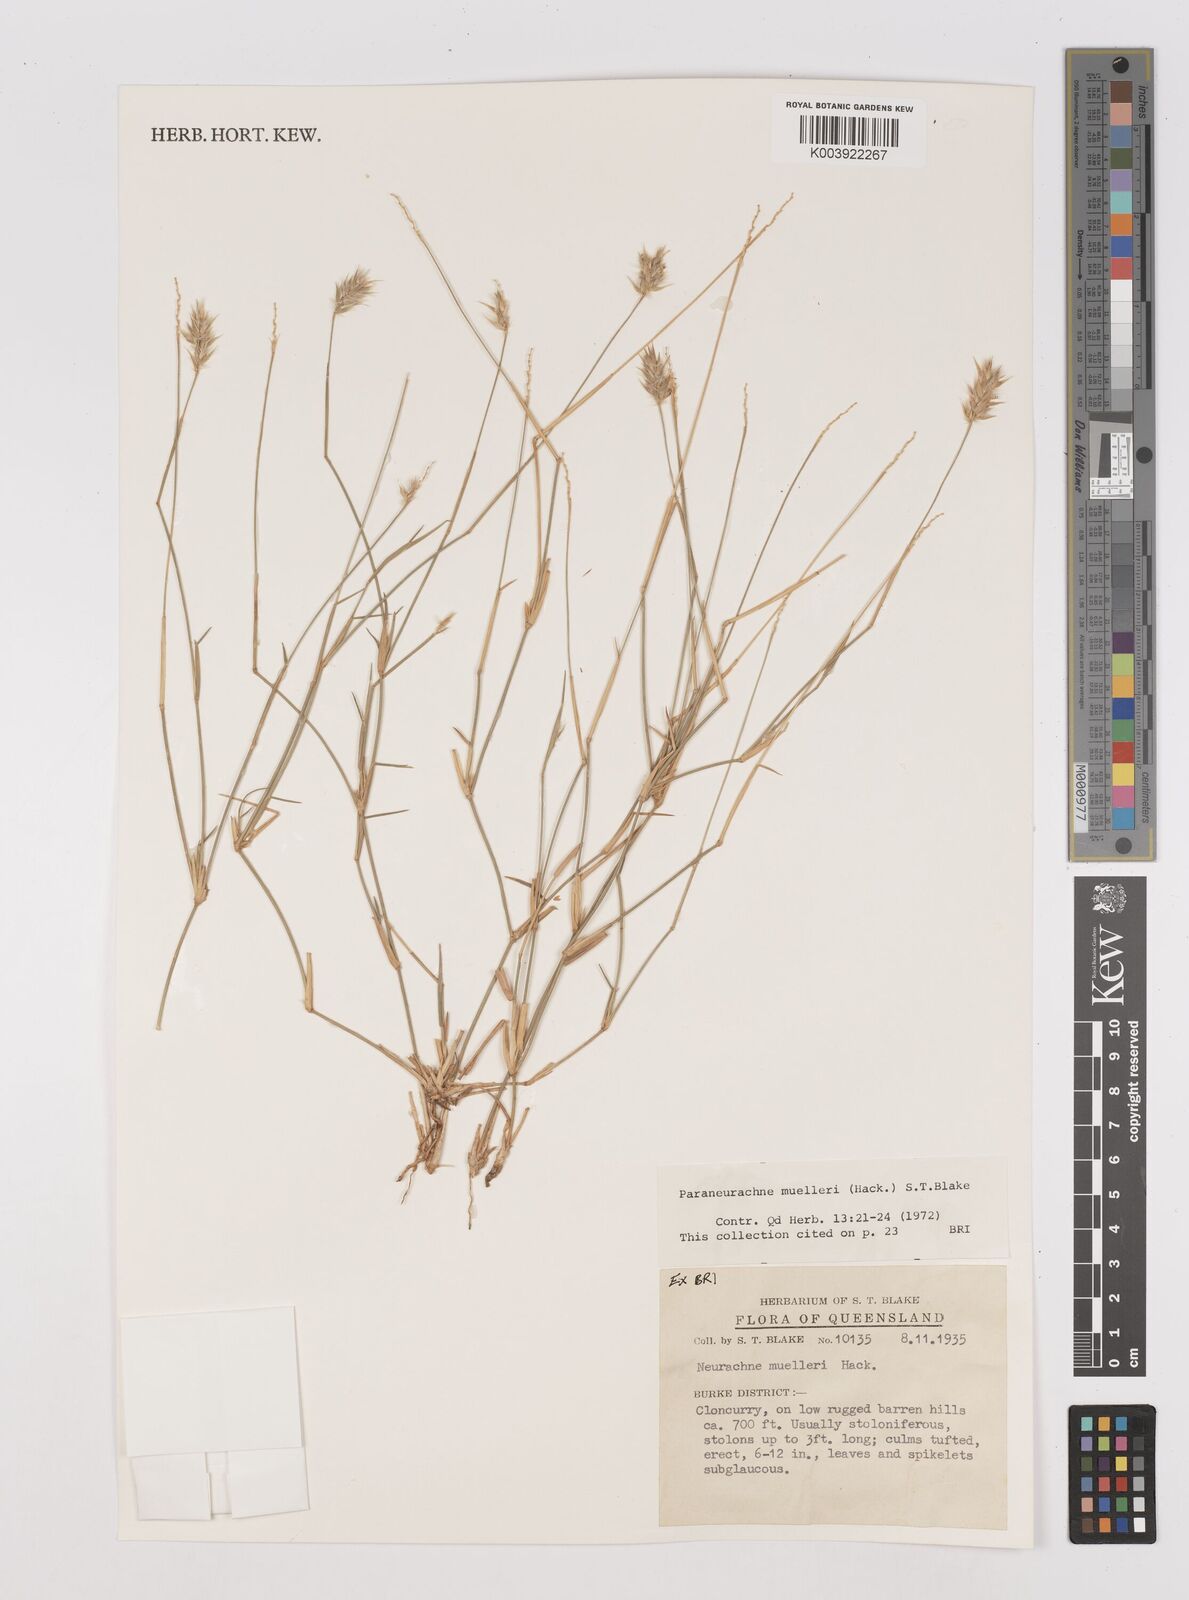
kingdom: Plantae
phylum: Tracheophyta
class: Liliopsida
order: Poales
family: Poaceae
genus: Neurachne
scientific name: Neurachne muelleri
